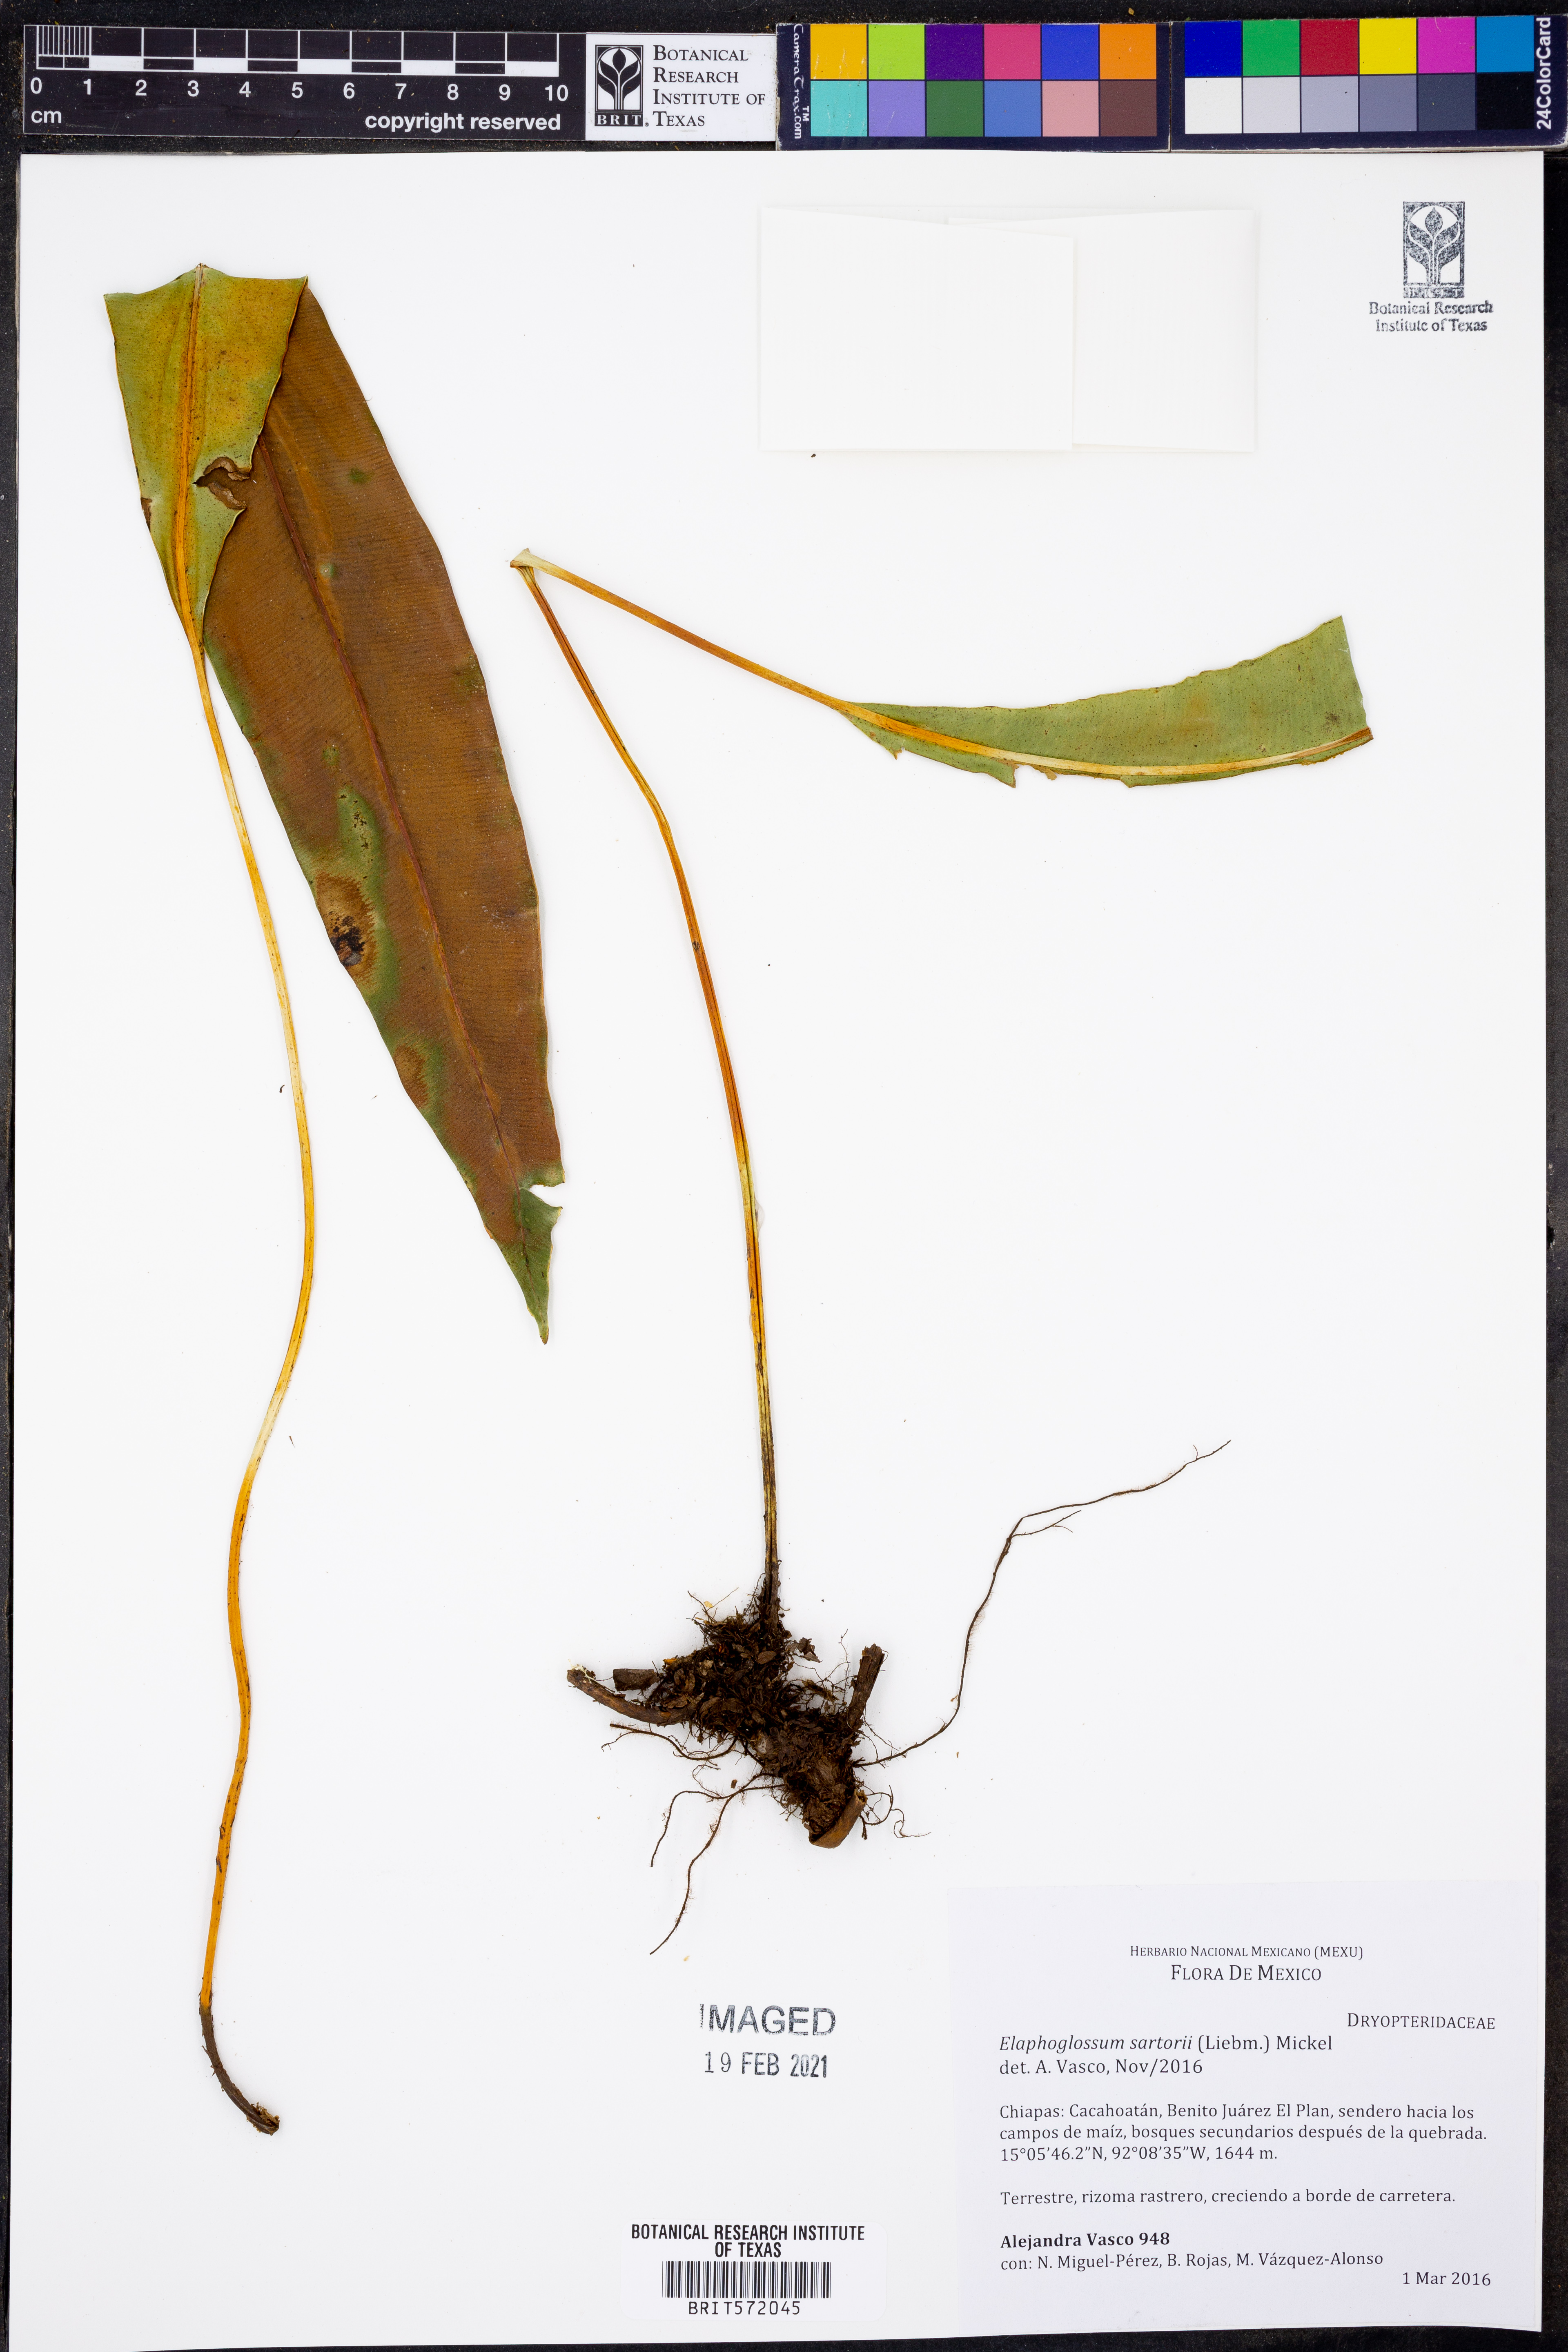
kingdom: Plantae
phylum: Tracheophyta
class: Polypodiopsida
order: Polypodiales
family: Dryopteridaceae
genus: Elaphoglossum
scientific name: Elaphoglossum sartorii
